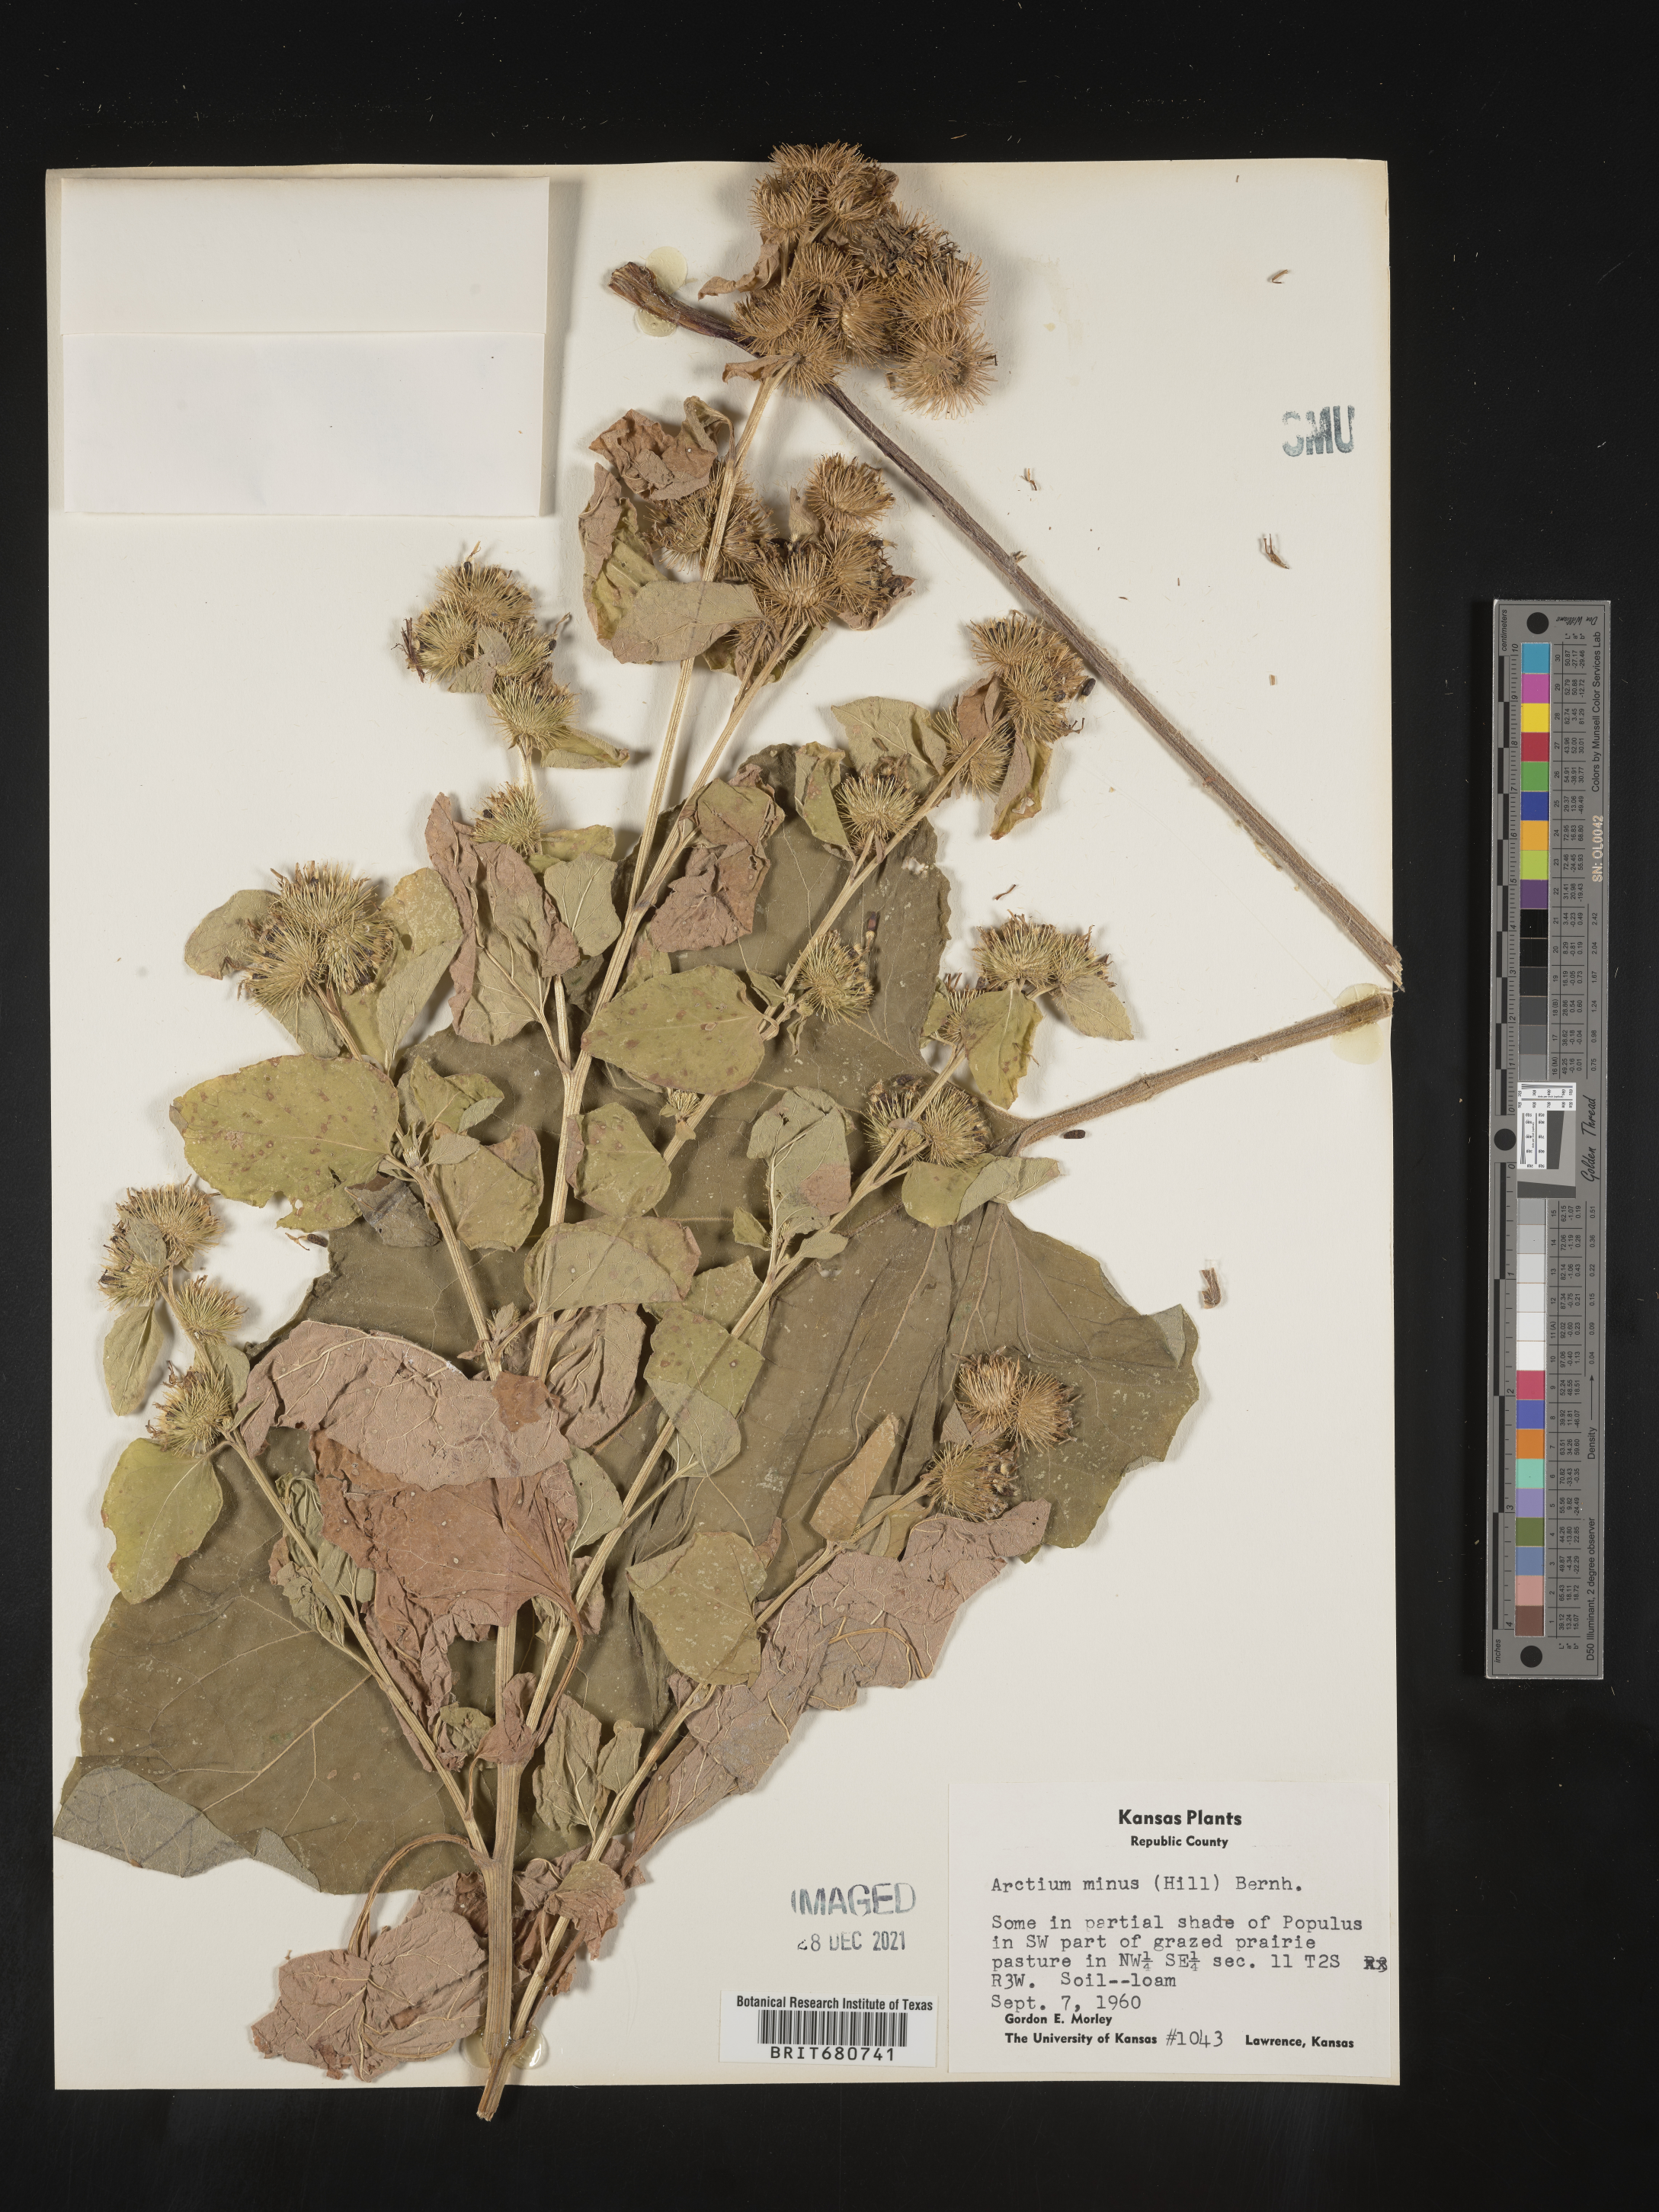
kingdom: Plantae
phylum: Tracheophyta
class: Magnoliopsida
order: Asterales
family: Asteraceae
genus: Arctium
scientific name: Arctium minus
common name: Lesser burdock
